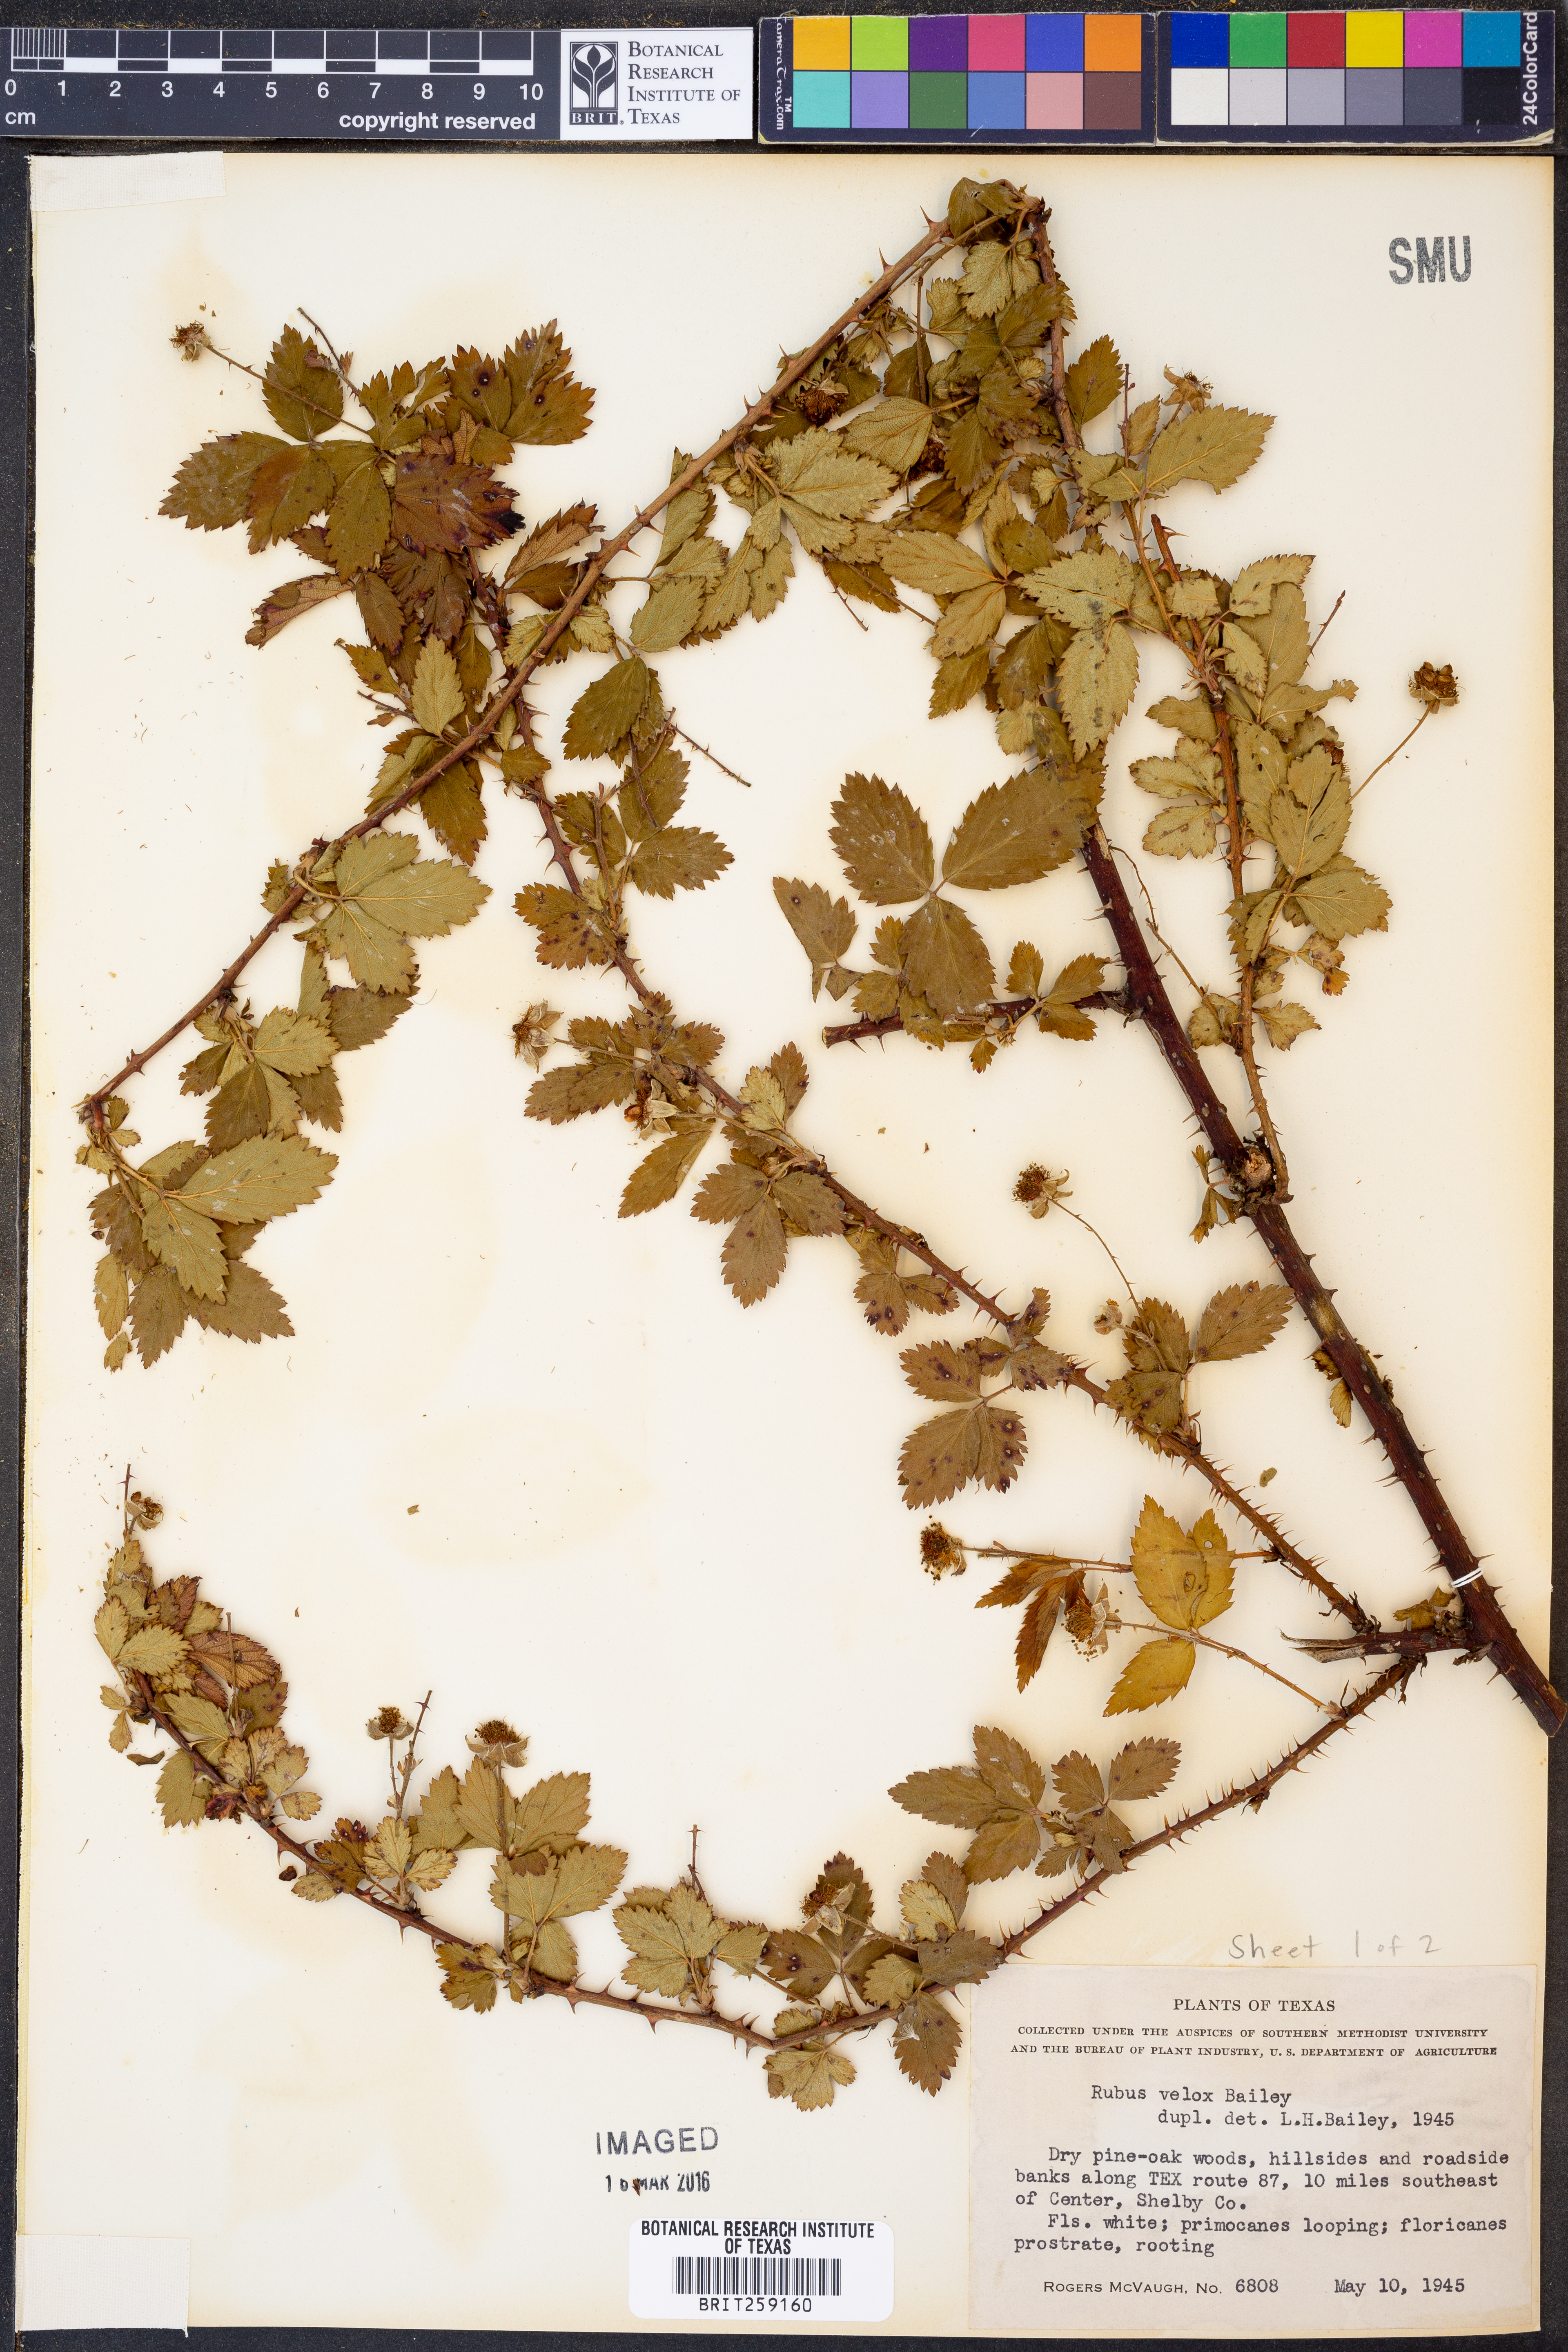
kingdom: Plantae
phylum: Tracheophyta
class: Magnoliopsida
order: Rosales
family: Rosaceae
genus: Rubus
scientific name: Rubus velox
